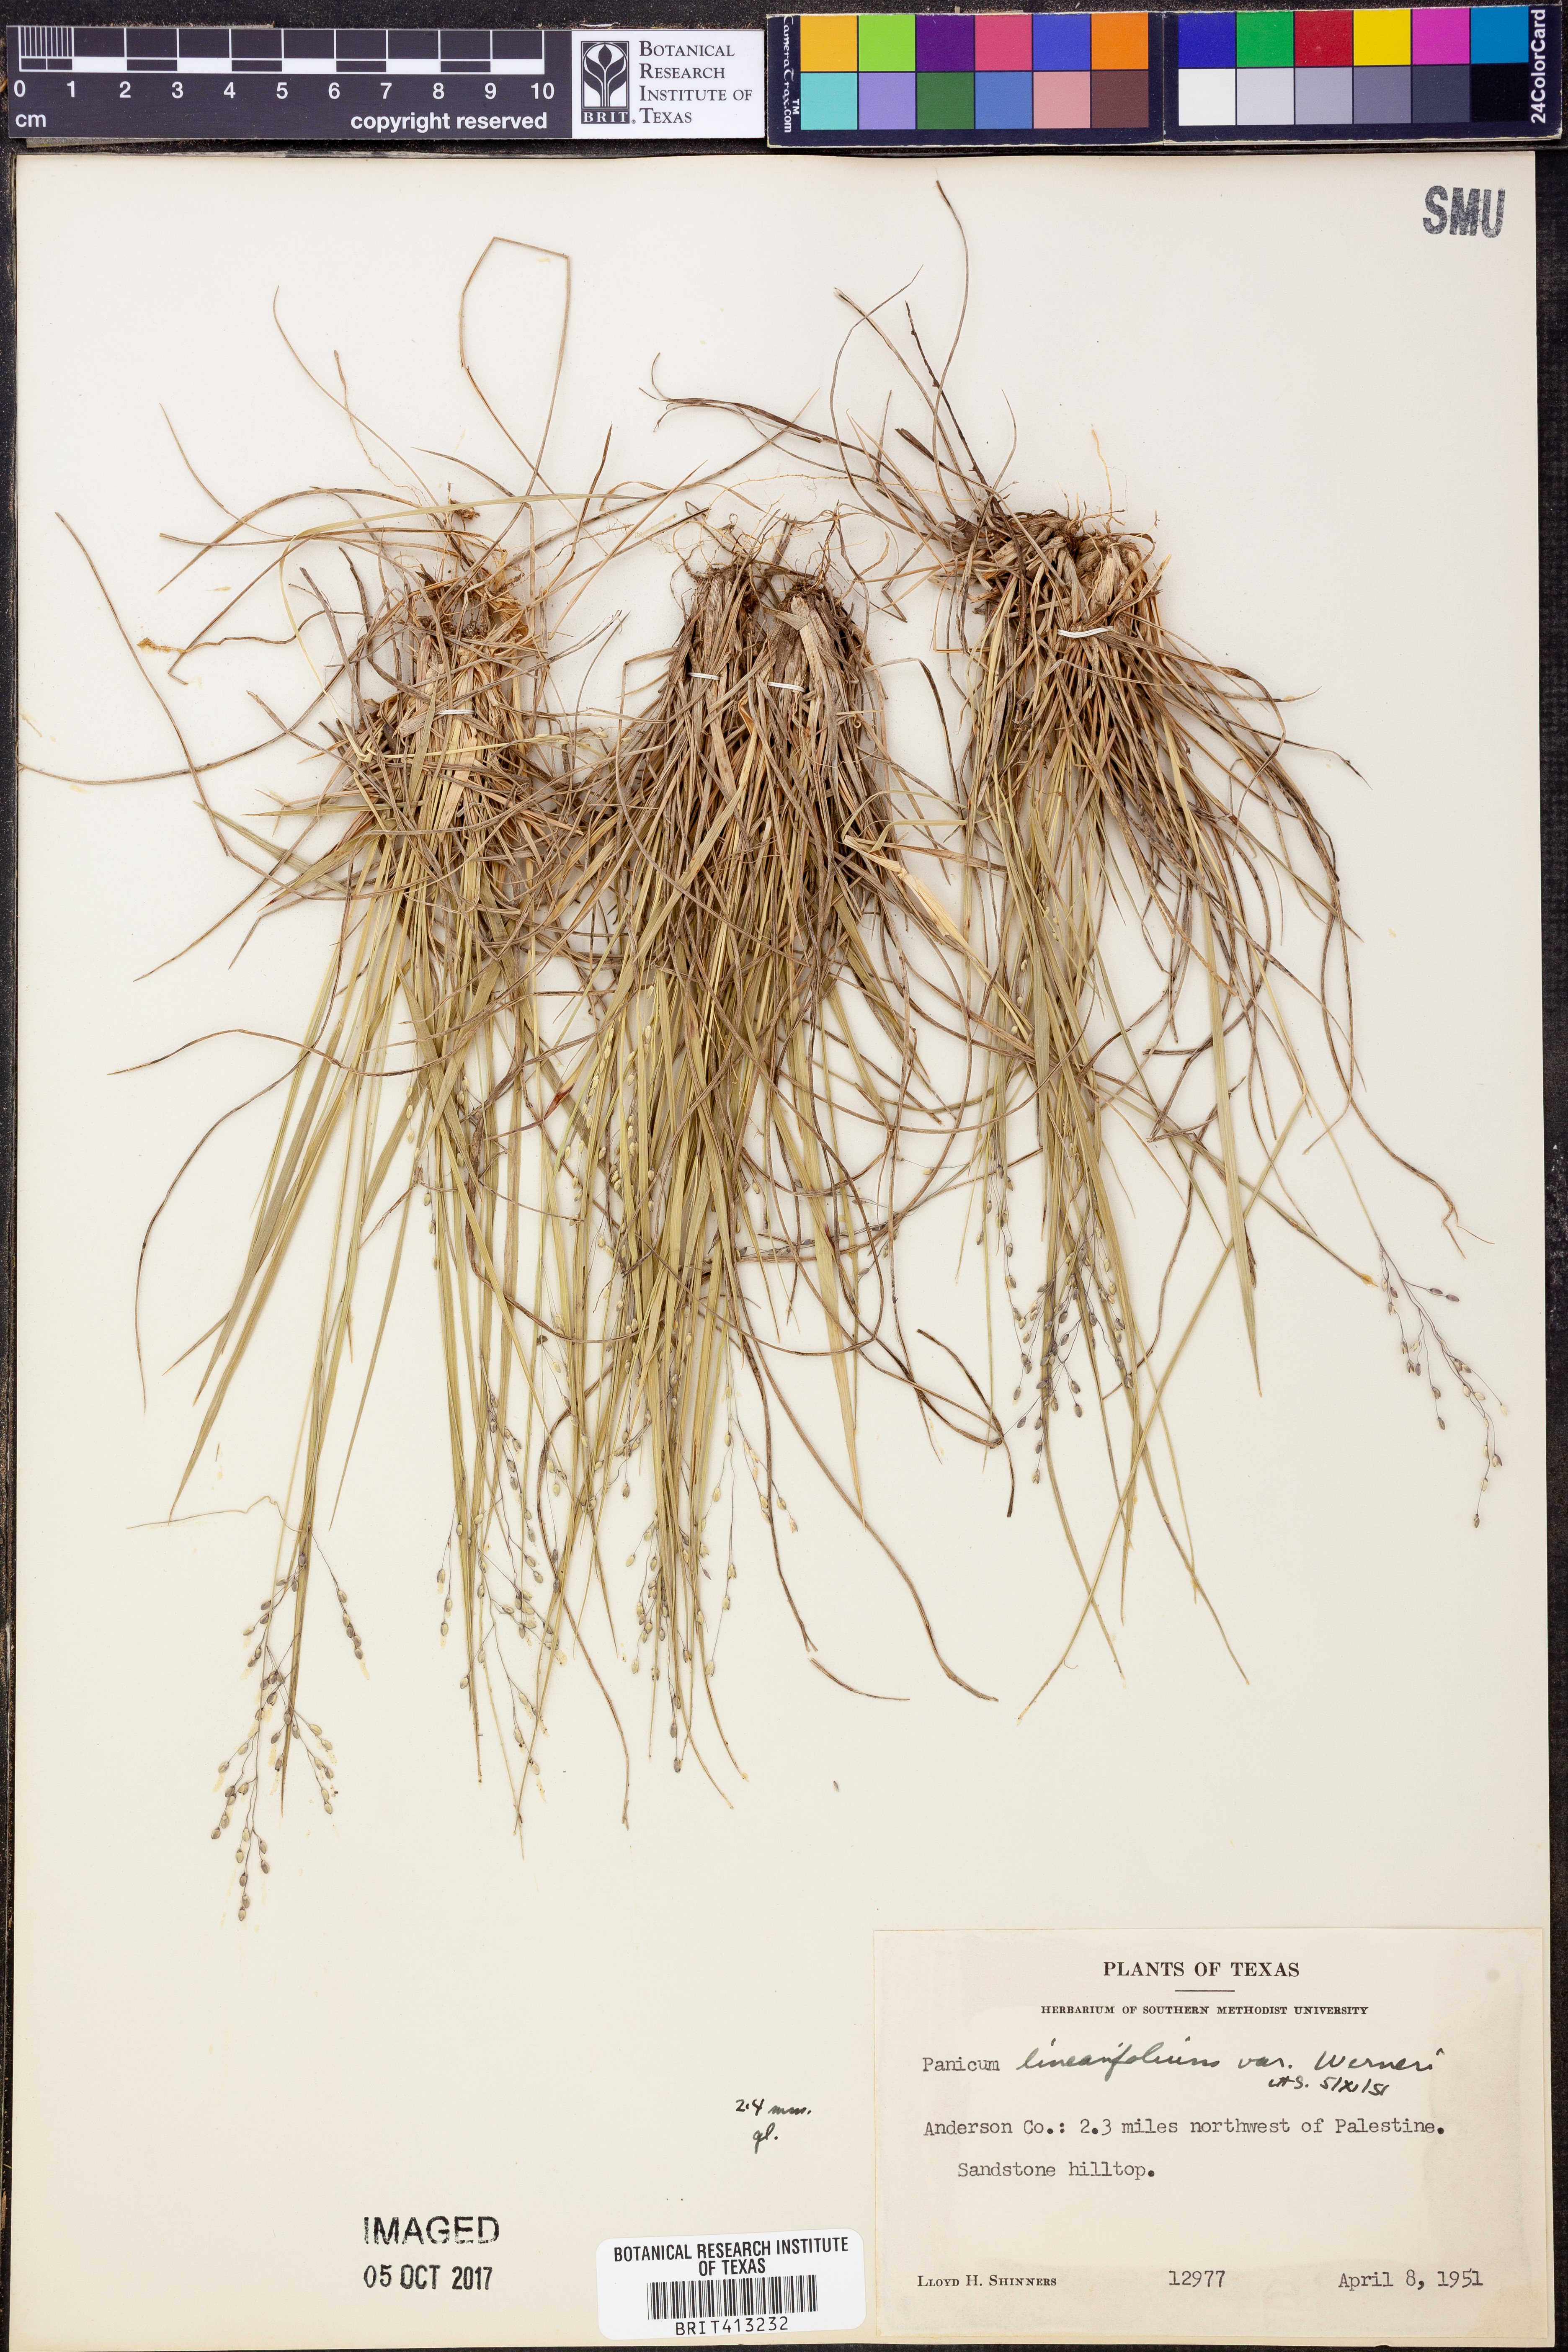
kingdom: Plantae
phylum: Tracheophyta
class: Liliopsida
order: Poales
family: Poaceae
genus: Dichanthelium
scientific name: Dichanthelium linearifolium
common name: Linear-leaved panicgrass
